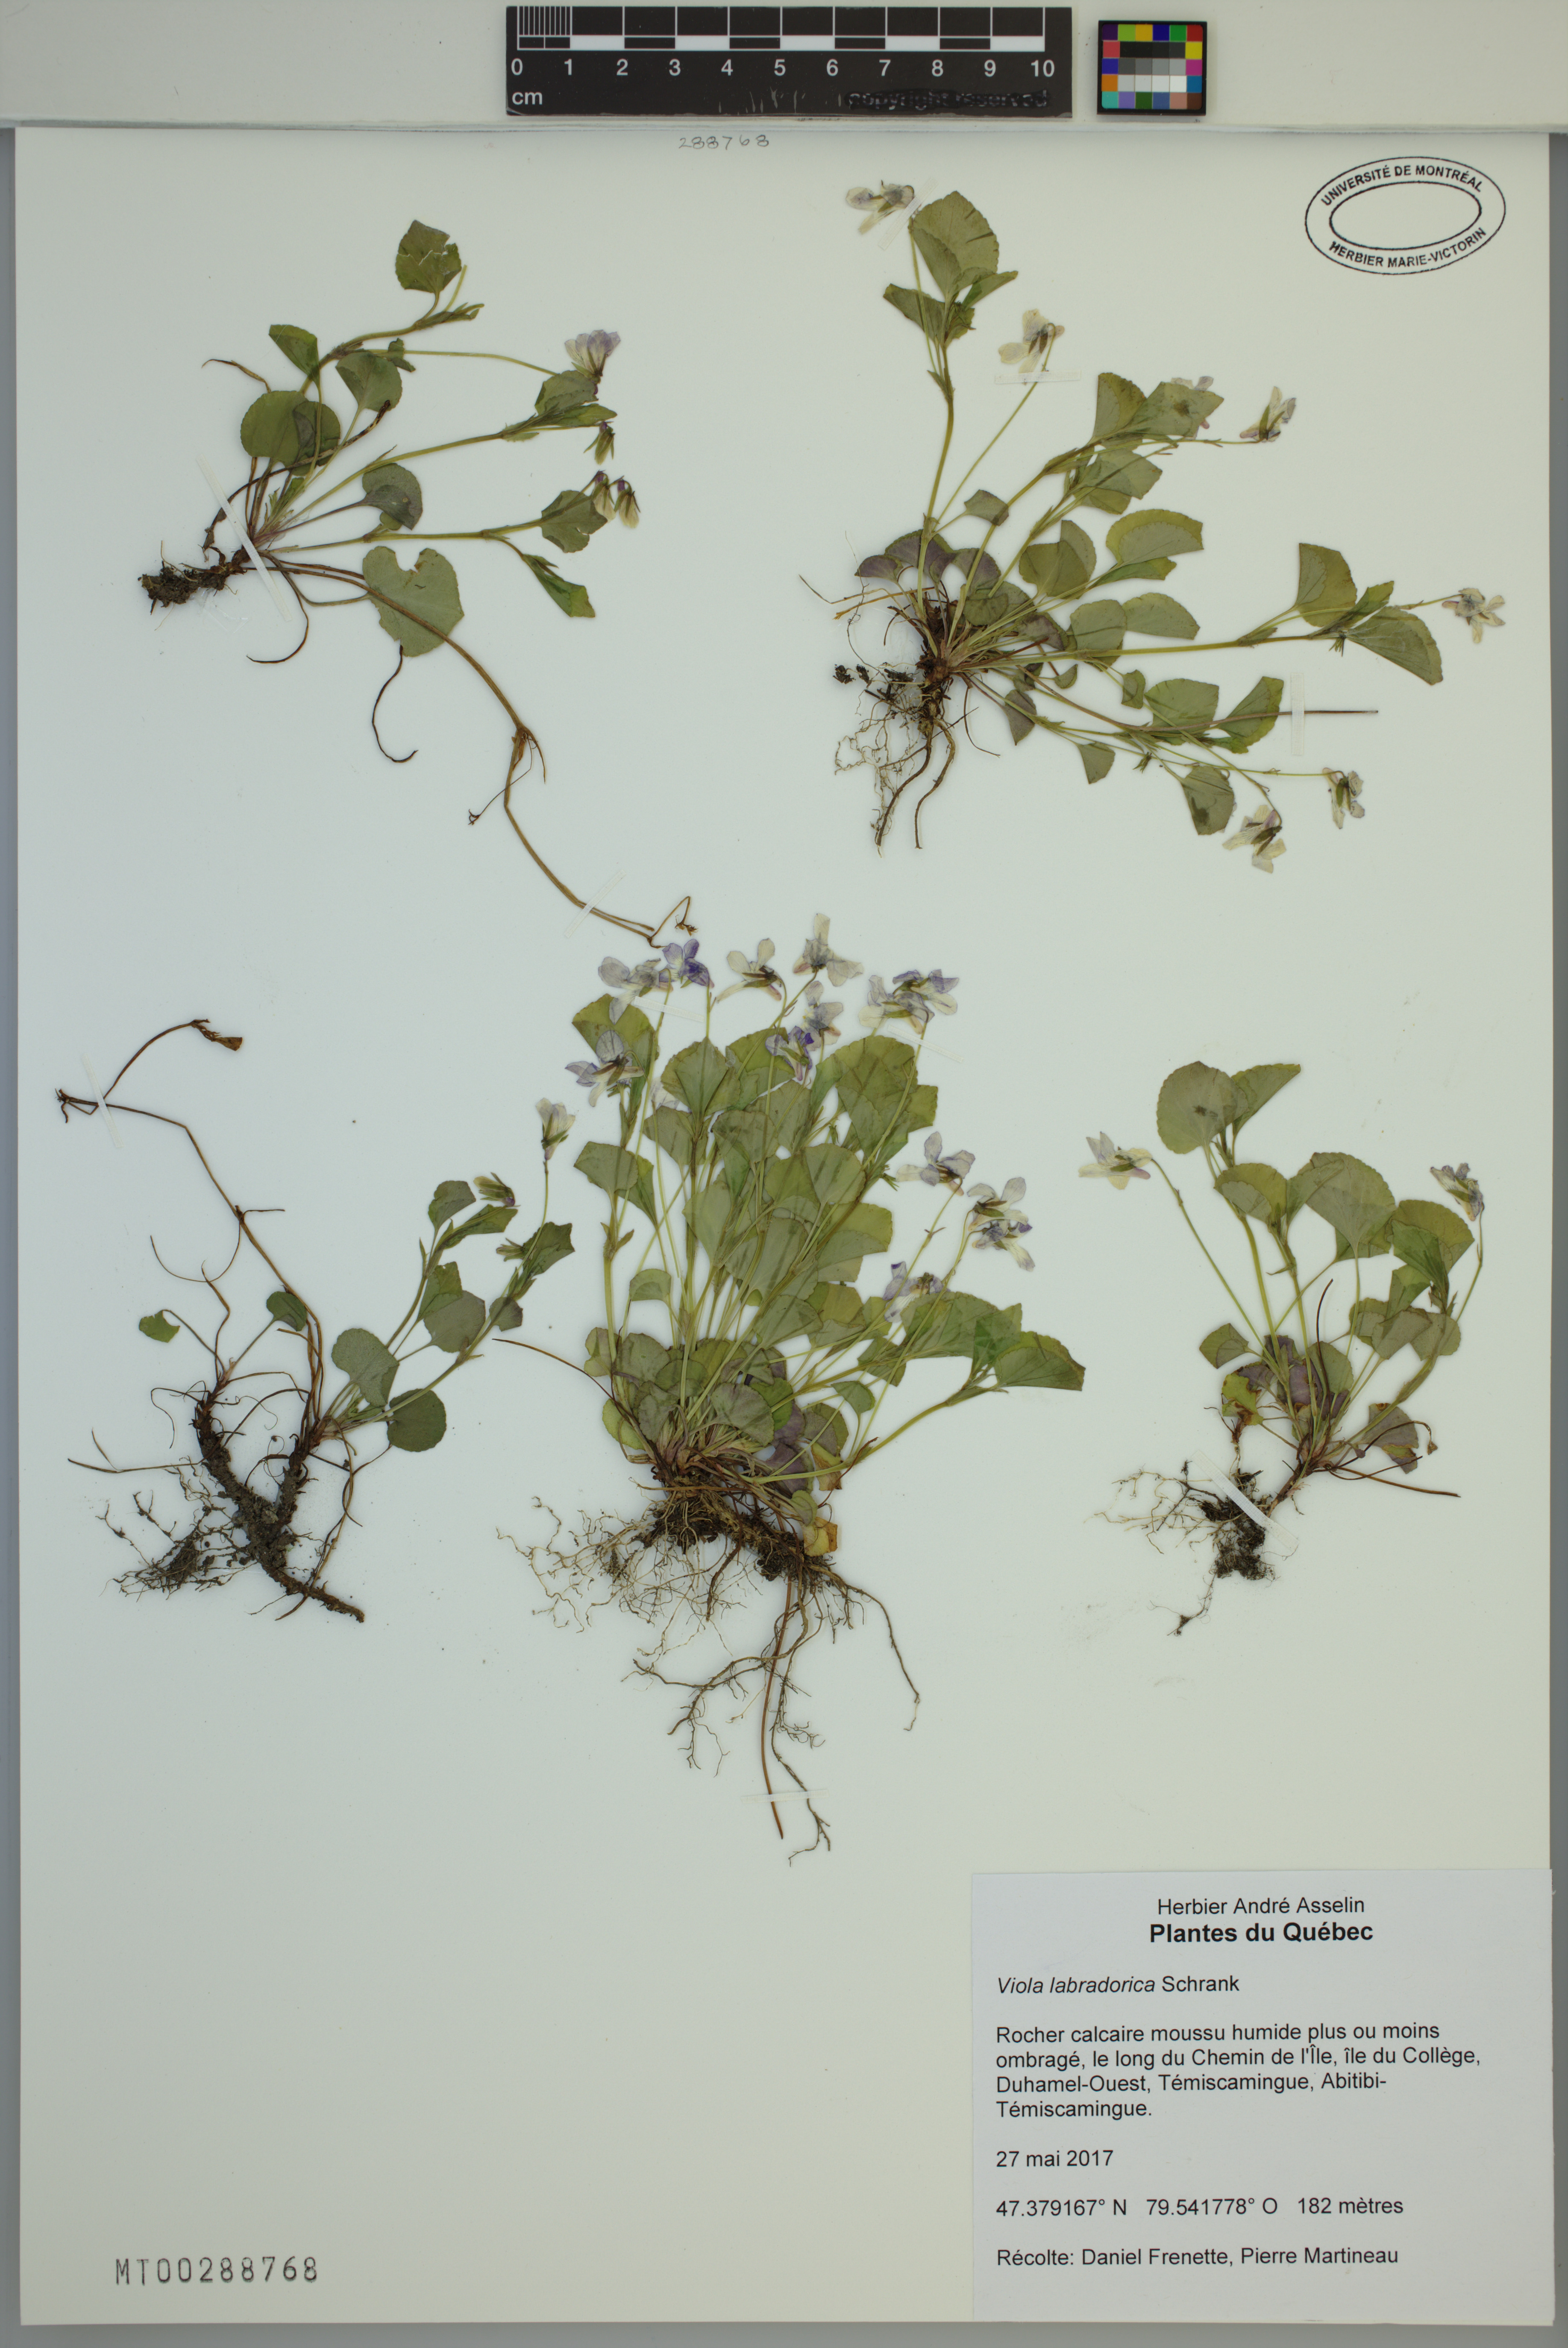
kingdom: Plantae
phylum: Tracheophyta
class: Magnoliopsida
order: Malpighiales
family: Violaceae
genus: Viola
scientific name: Viola labradorica
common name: Labrador violet
